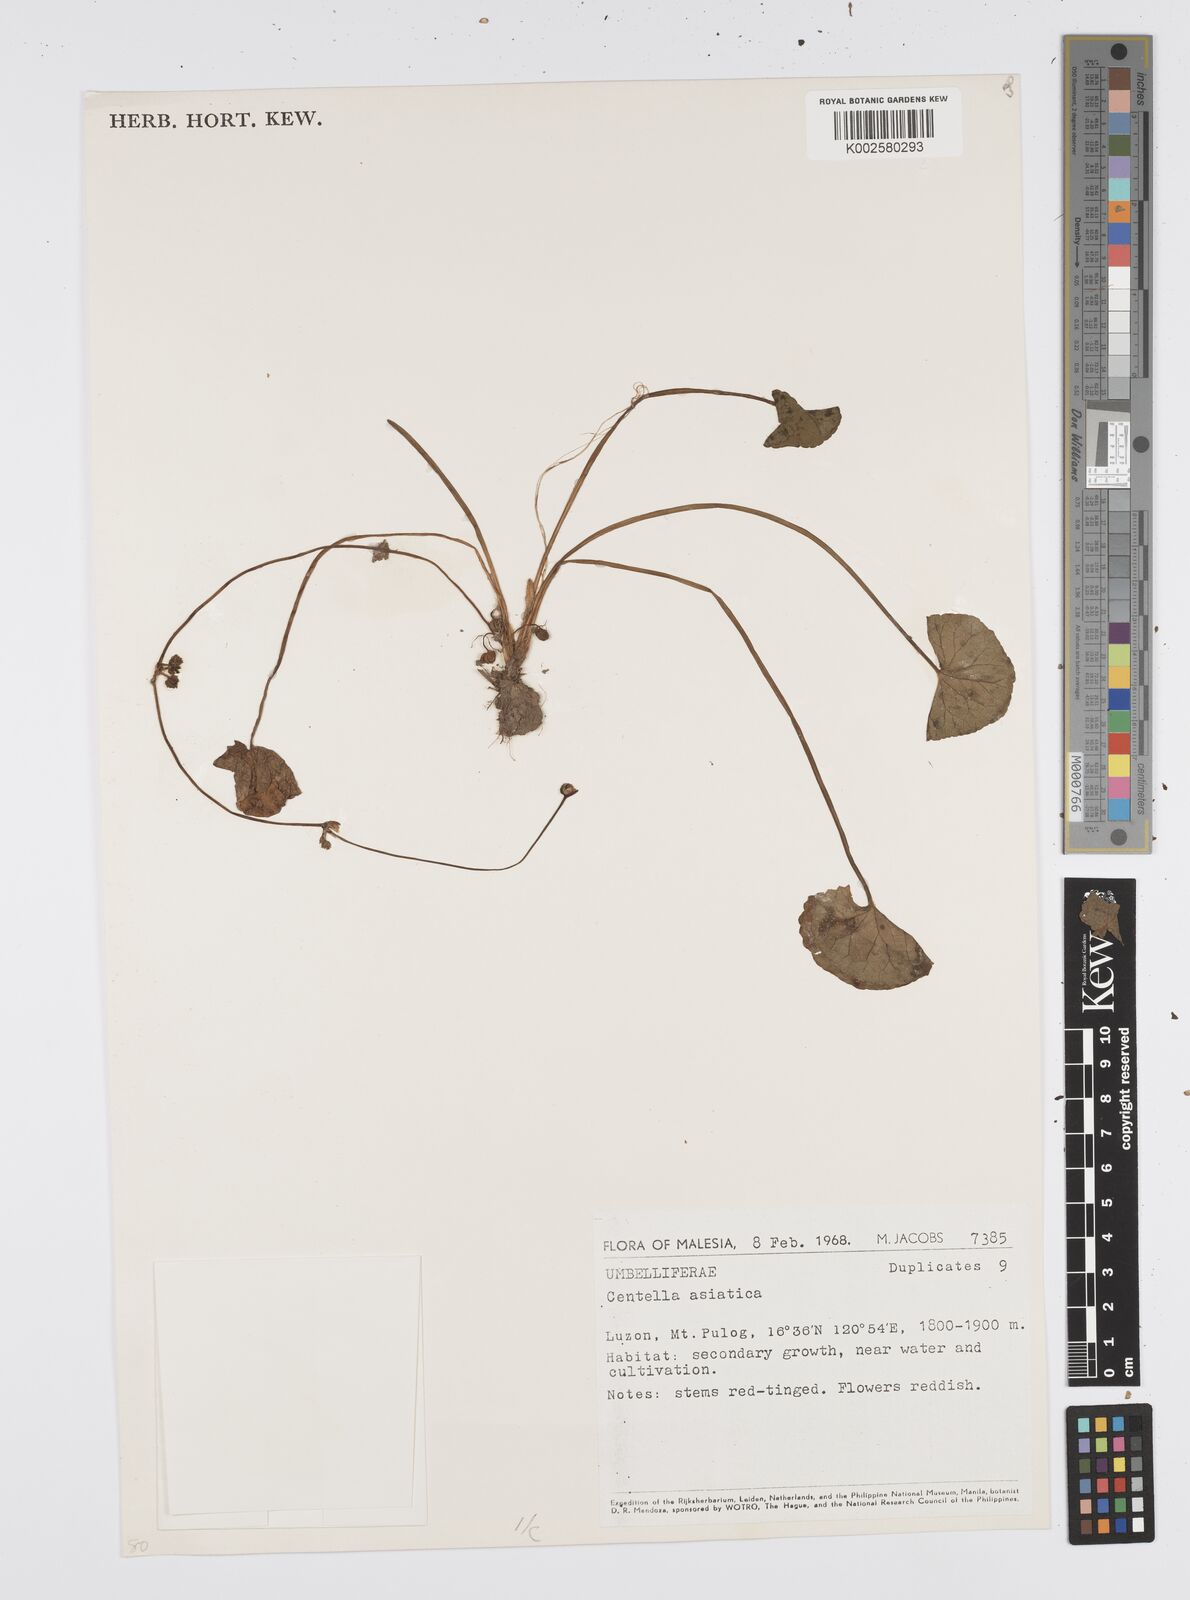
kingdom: Plantae
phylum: Tracheophyta
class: Magnoliopsida
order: Apiales
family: Apiaceae
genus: Centella
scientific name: Centella asiatica
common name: Spadeleaf
